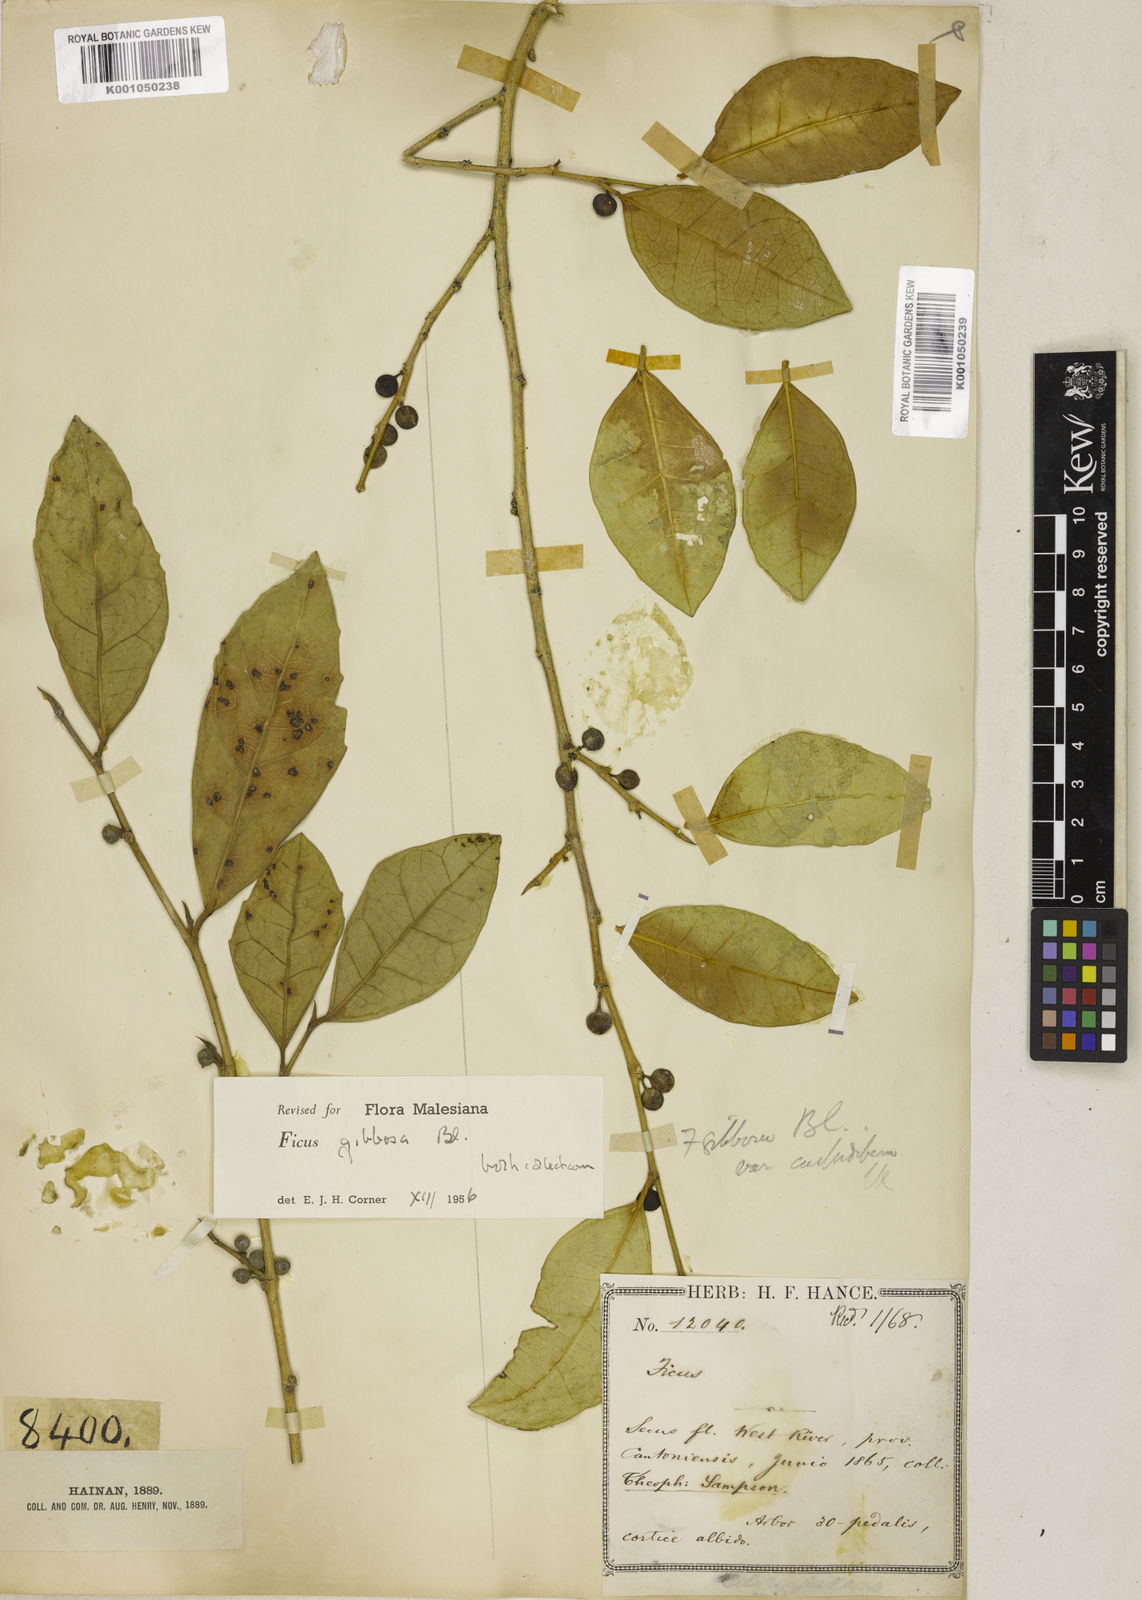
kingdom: Plantae
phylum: Tracheophyta
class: Magnoliopsida
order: Rosales
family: Moraceae
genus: Ficus
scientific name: Ficus tinctoria
